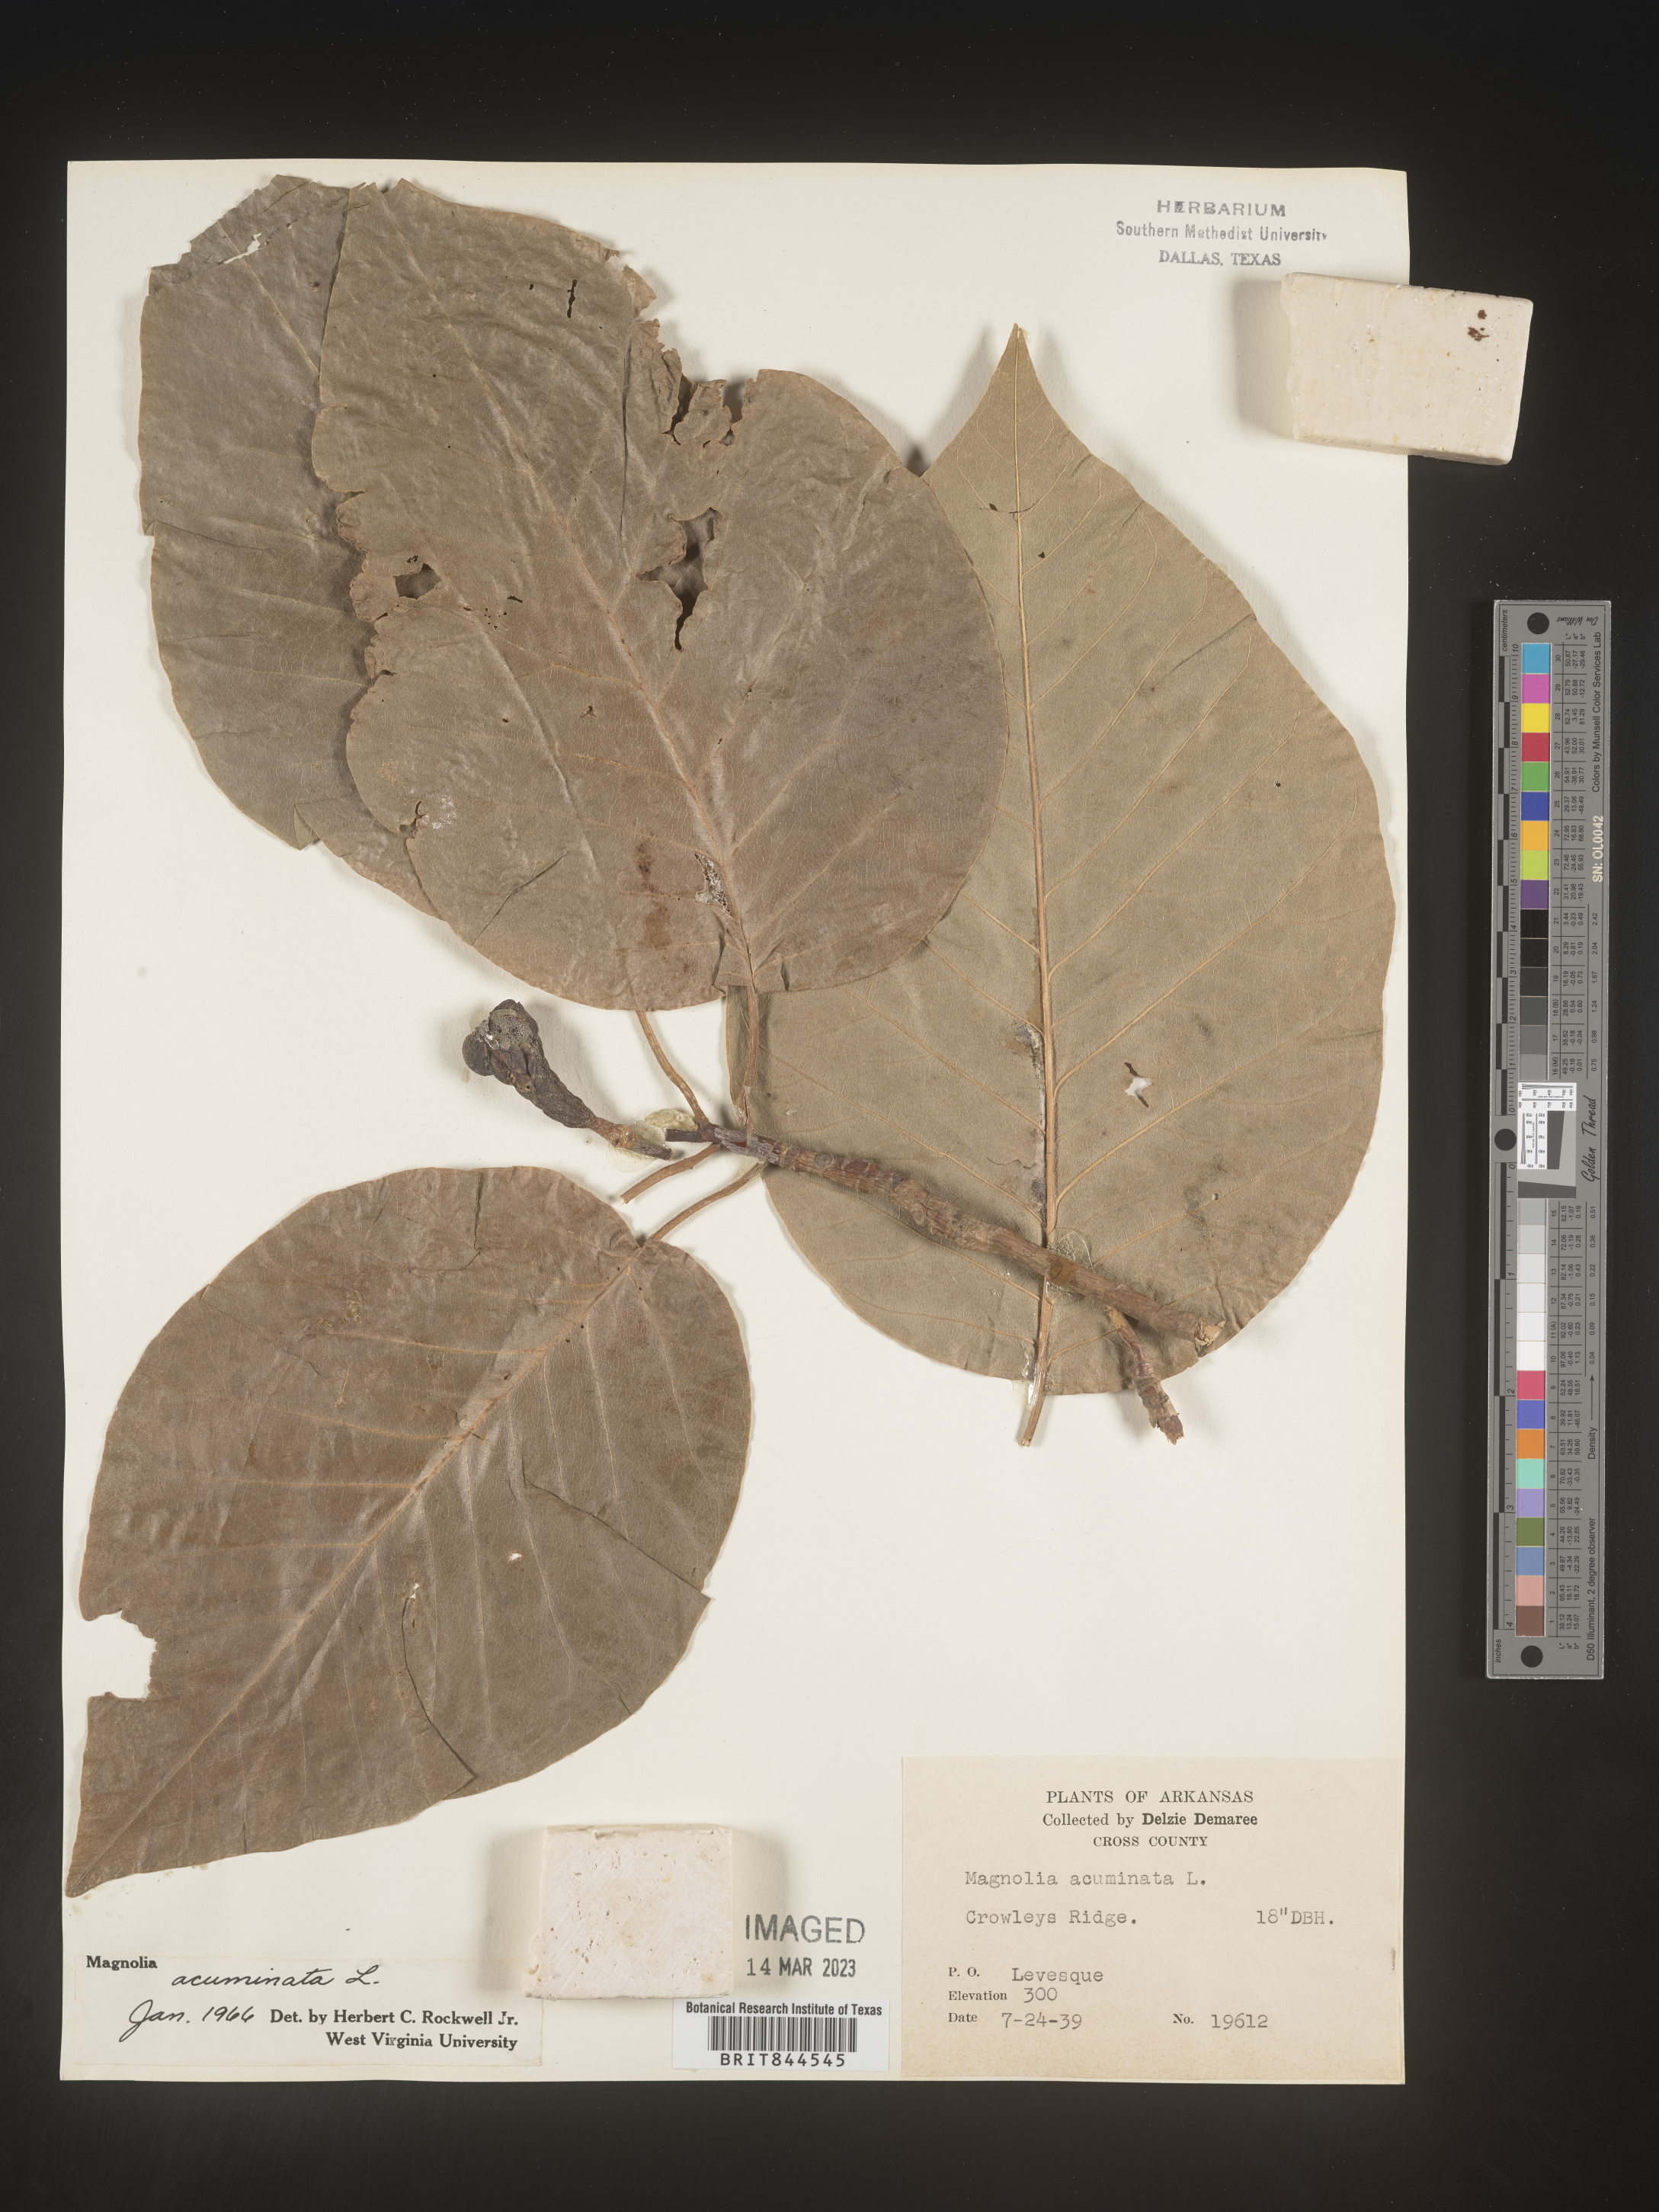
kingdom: Plantae
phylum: Tracheophyta
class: Magnoliopsida
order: Magnoliales
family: Magnoliaceae
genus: Magnolia
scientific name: Magnolia acuminata
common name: Cucumber magnolia
